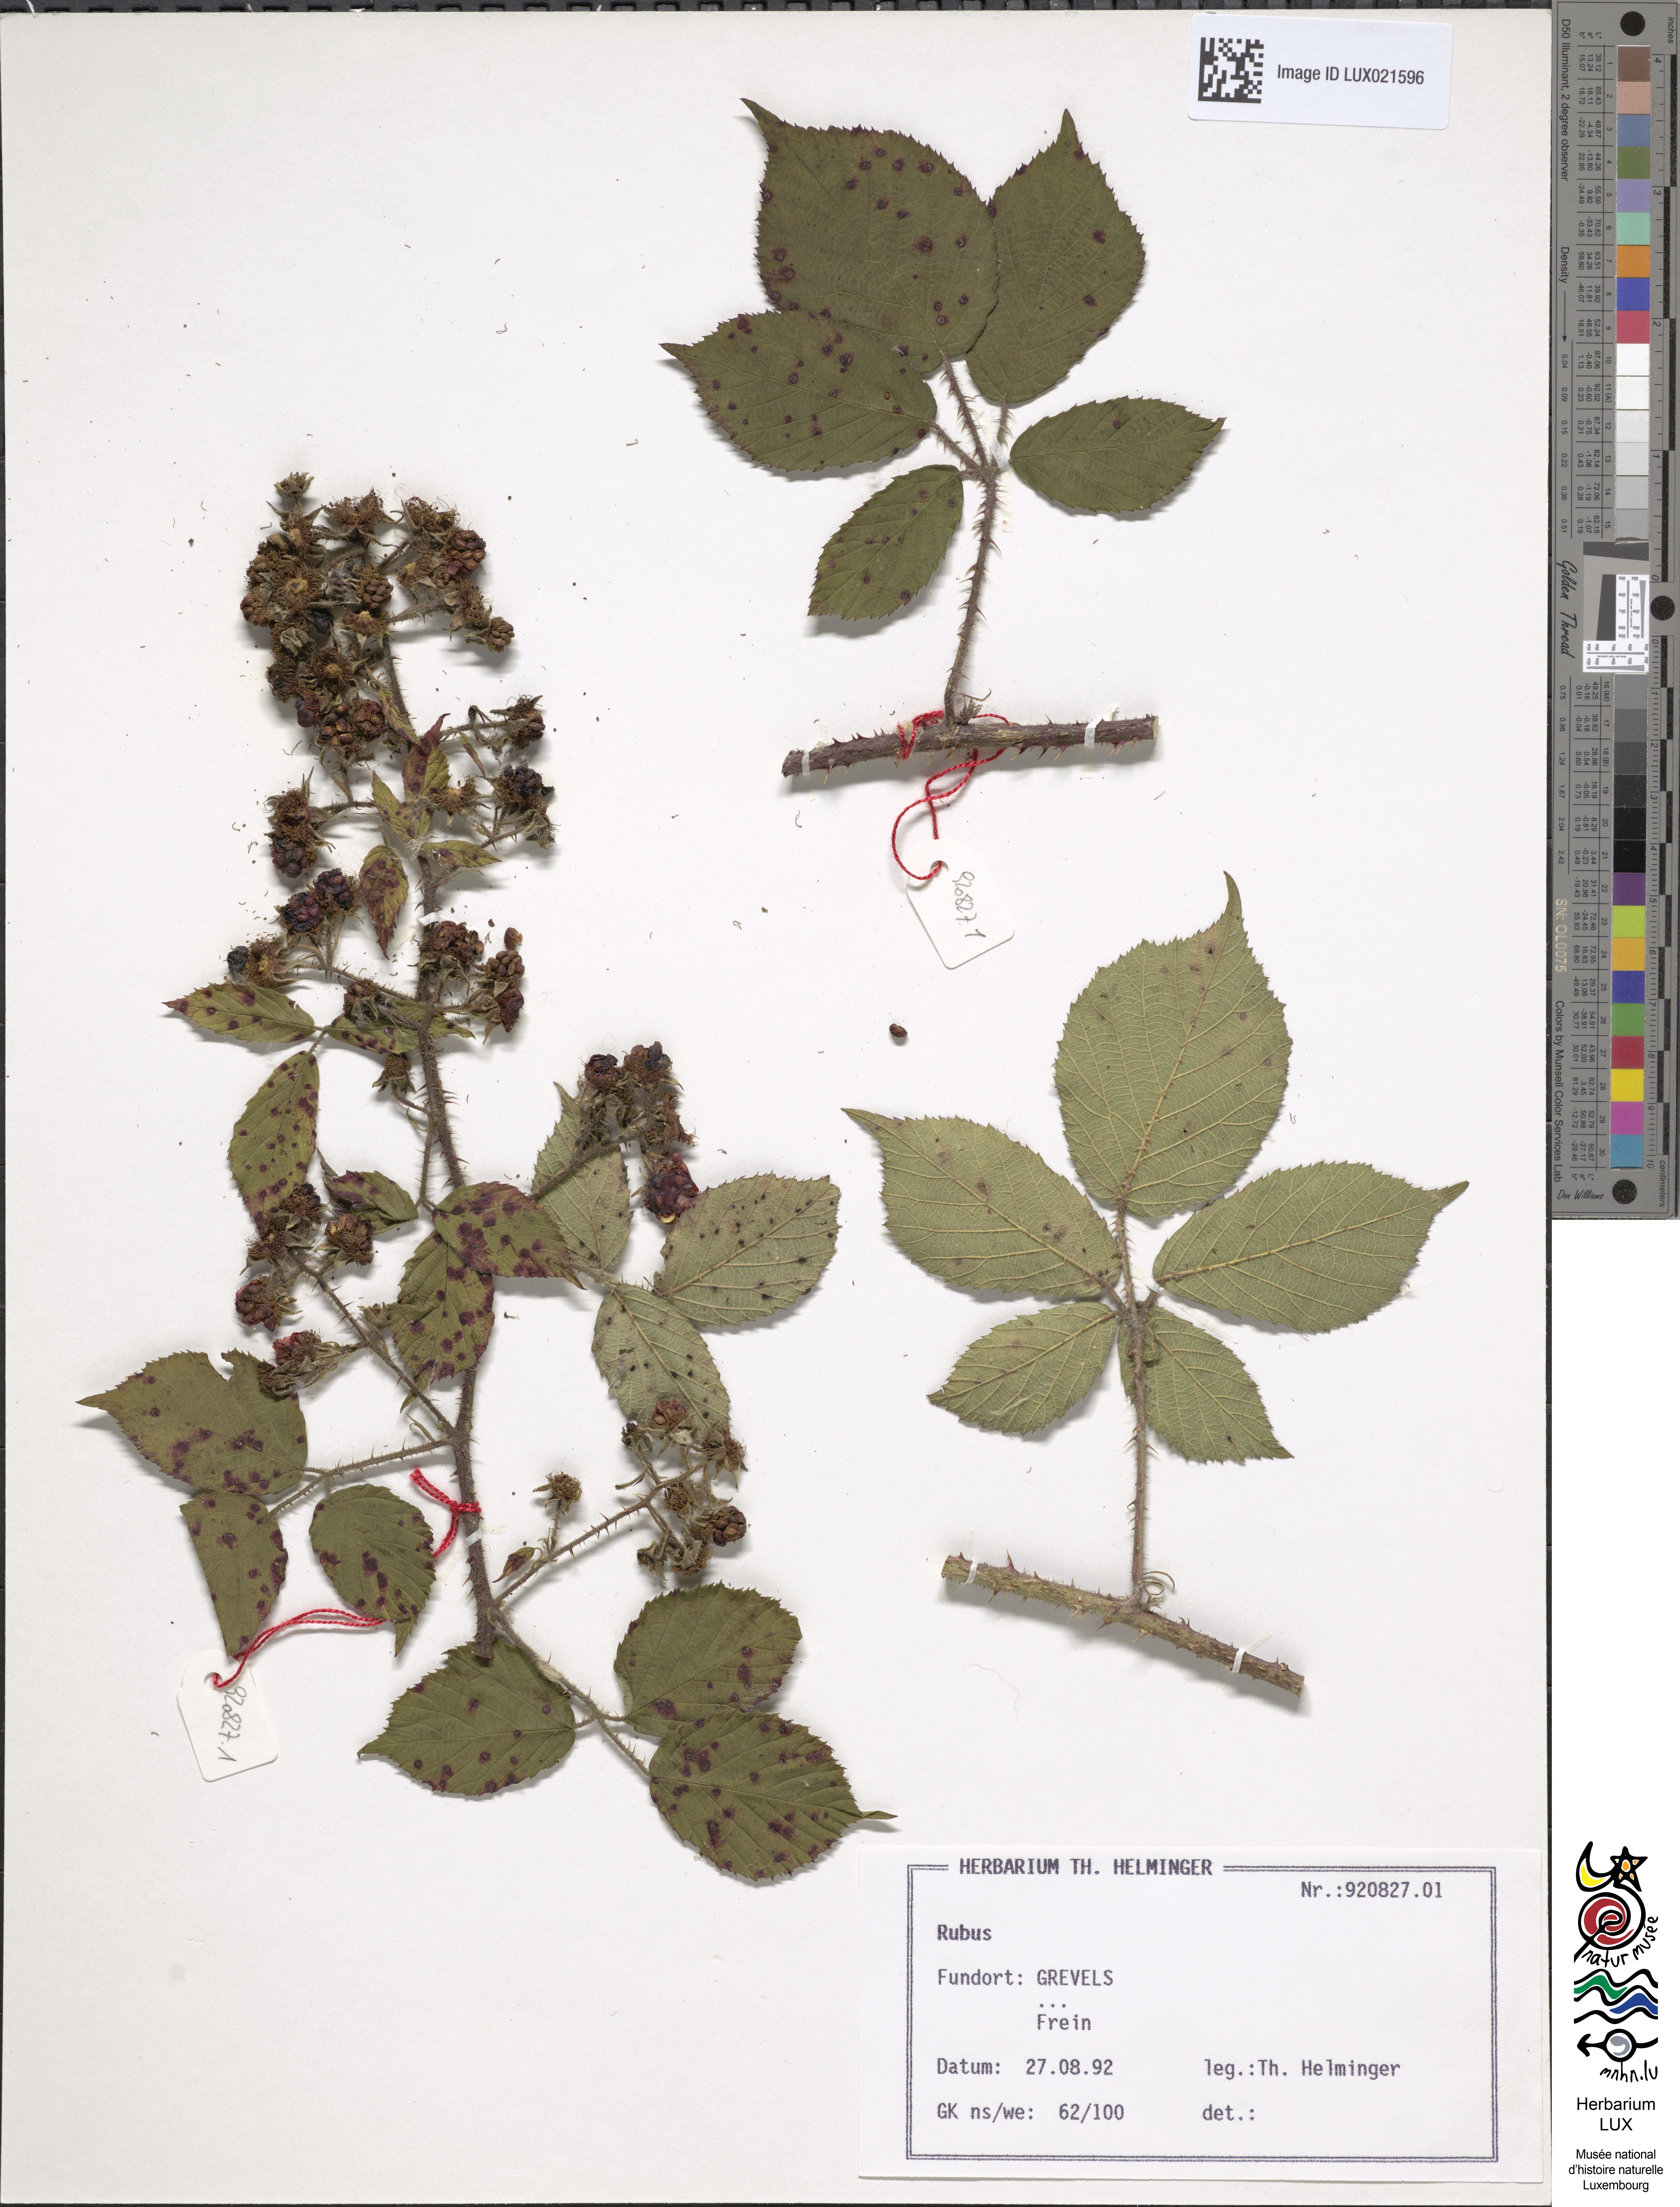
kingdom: Plantae
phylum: Tracheophyta
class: Magnoliopsida
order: Rosales
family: Rosaceae
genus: Rubus
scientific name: Rubus
